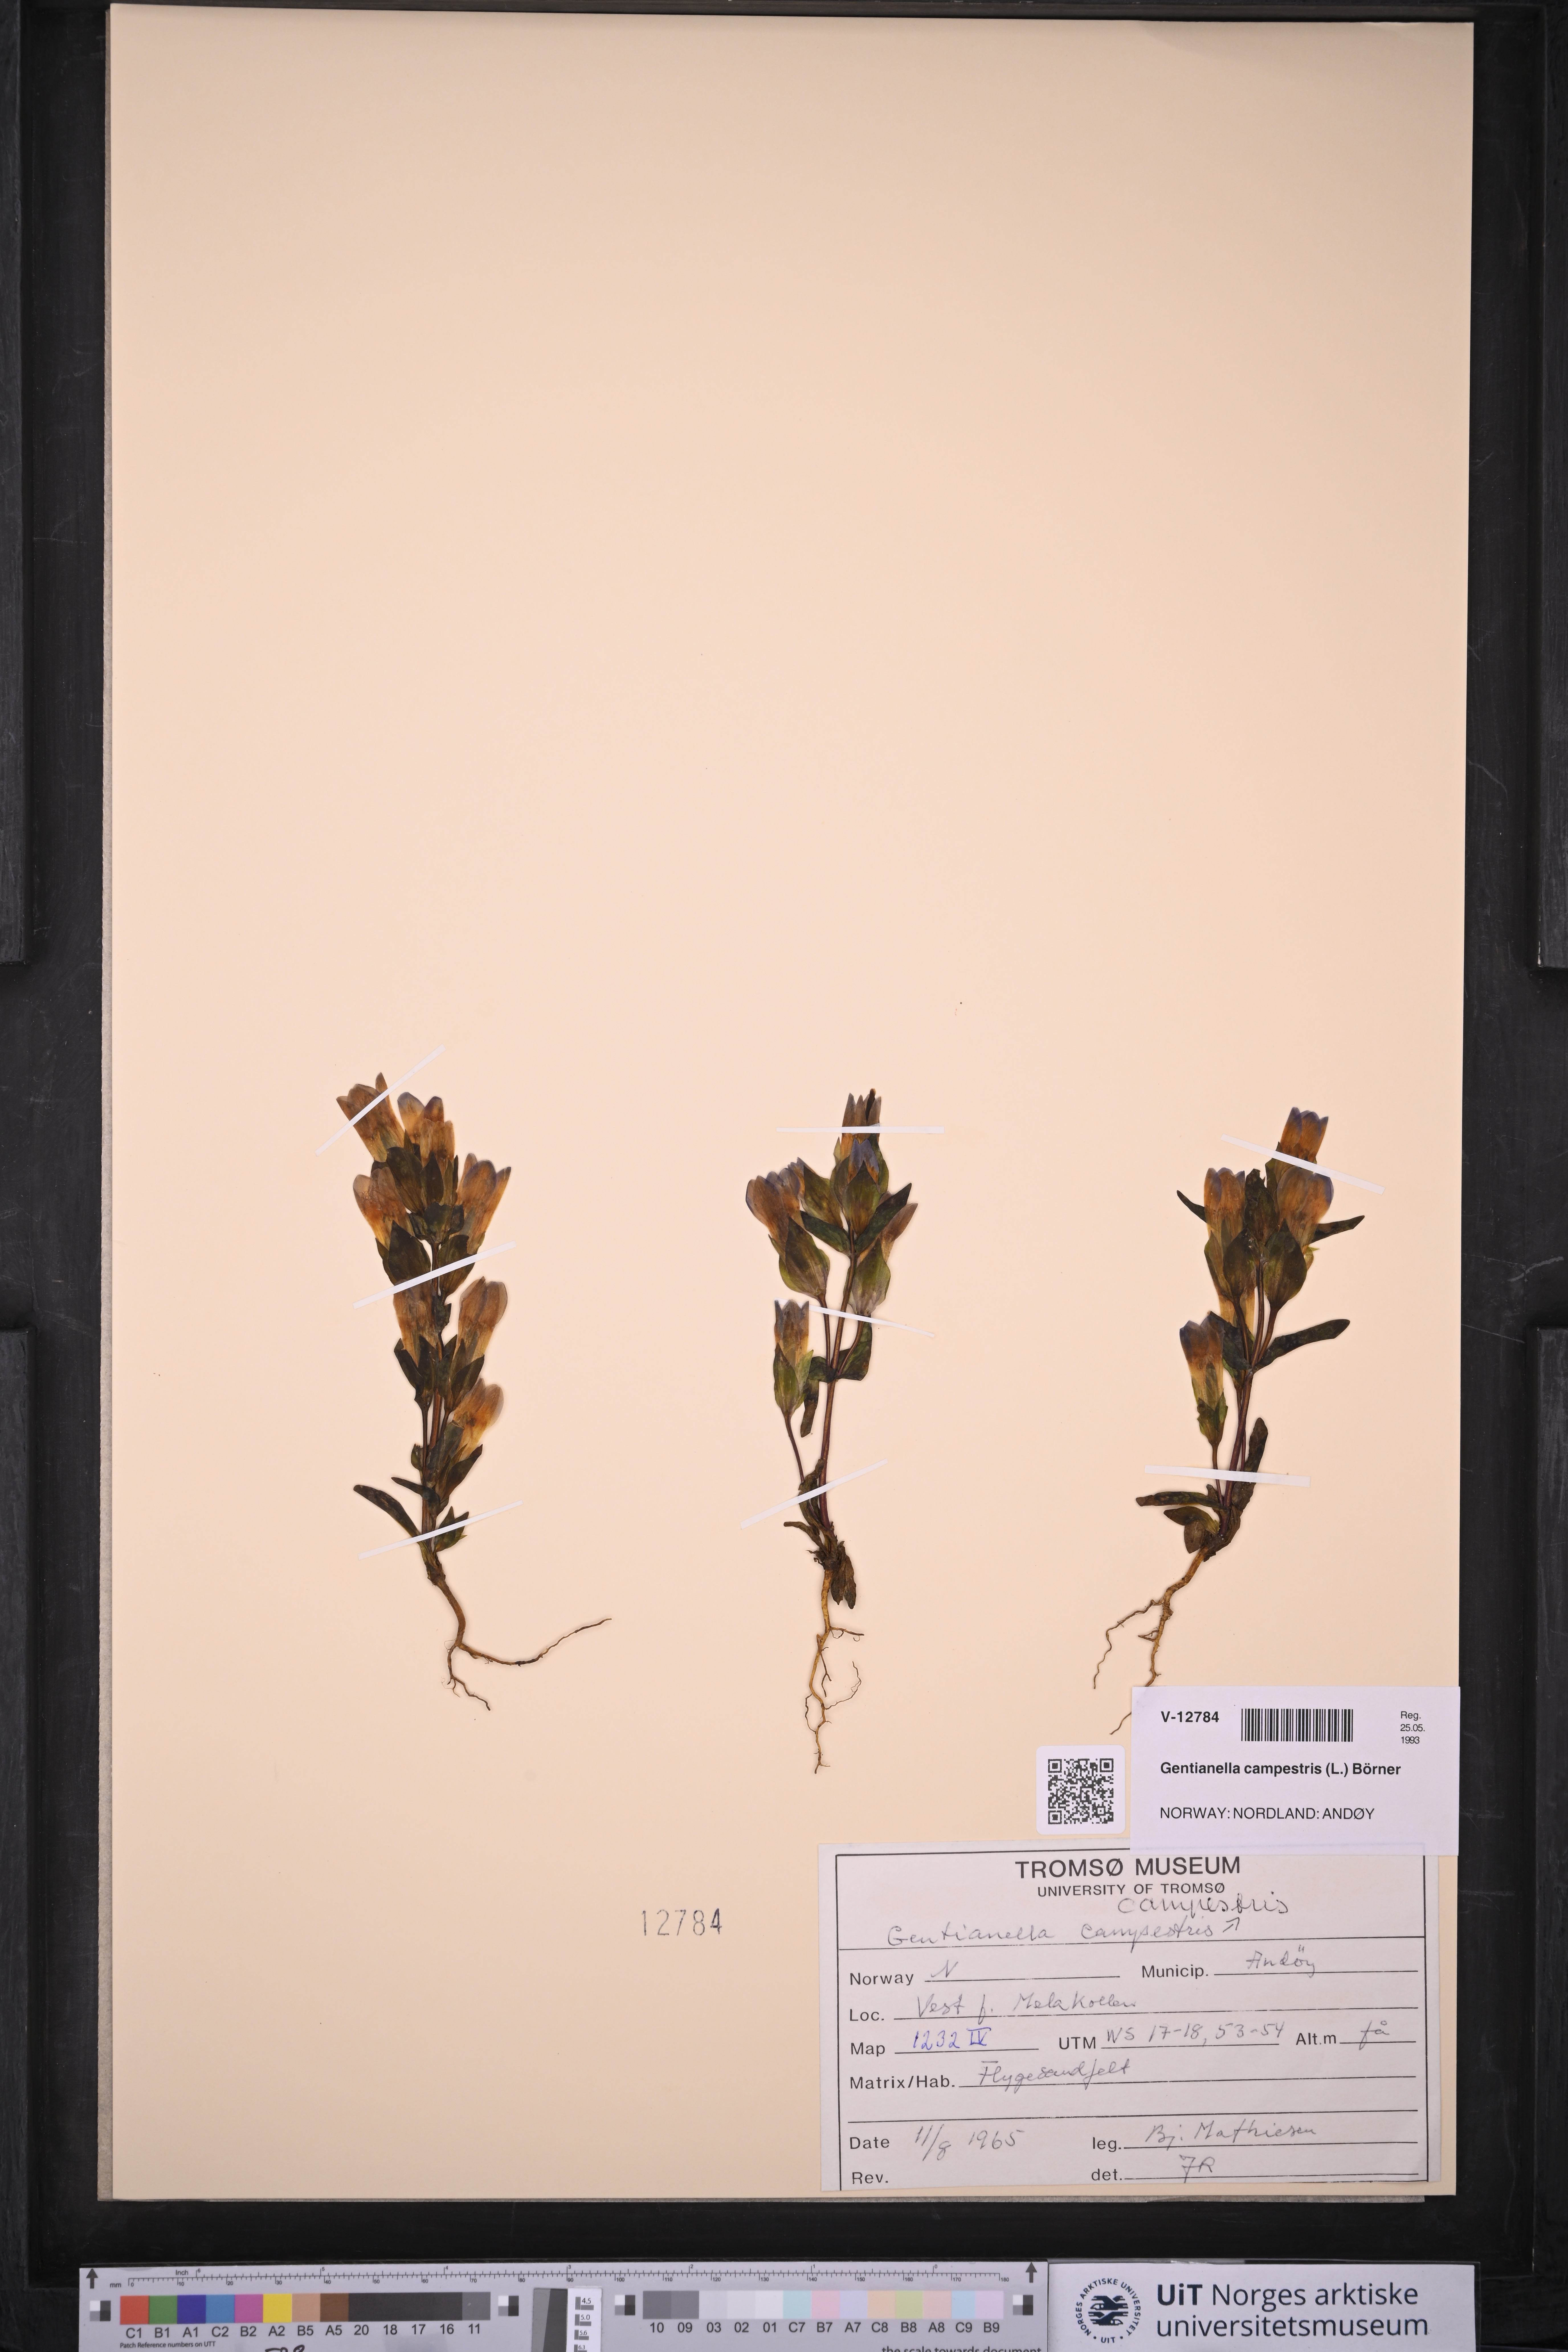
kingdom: Plantae
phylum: Tracheophyta
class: Magnoliopsida
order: Gentianales
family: Gentianaceae
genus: Gentianella
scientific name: Gentianella campestris
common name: Field gentian
